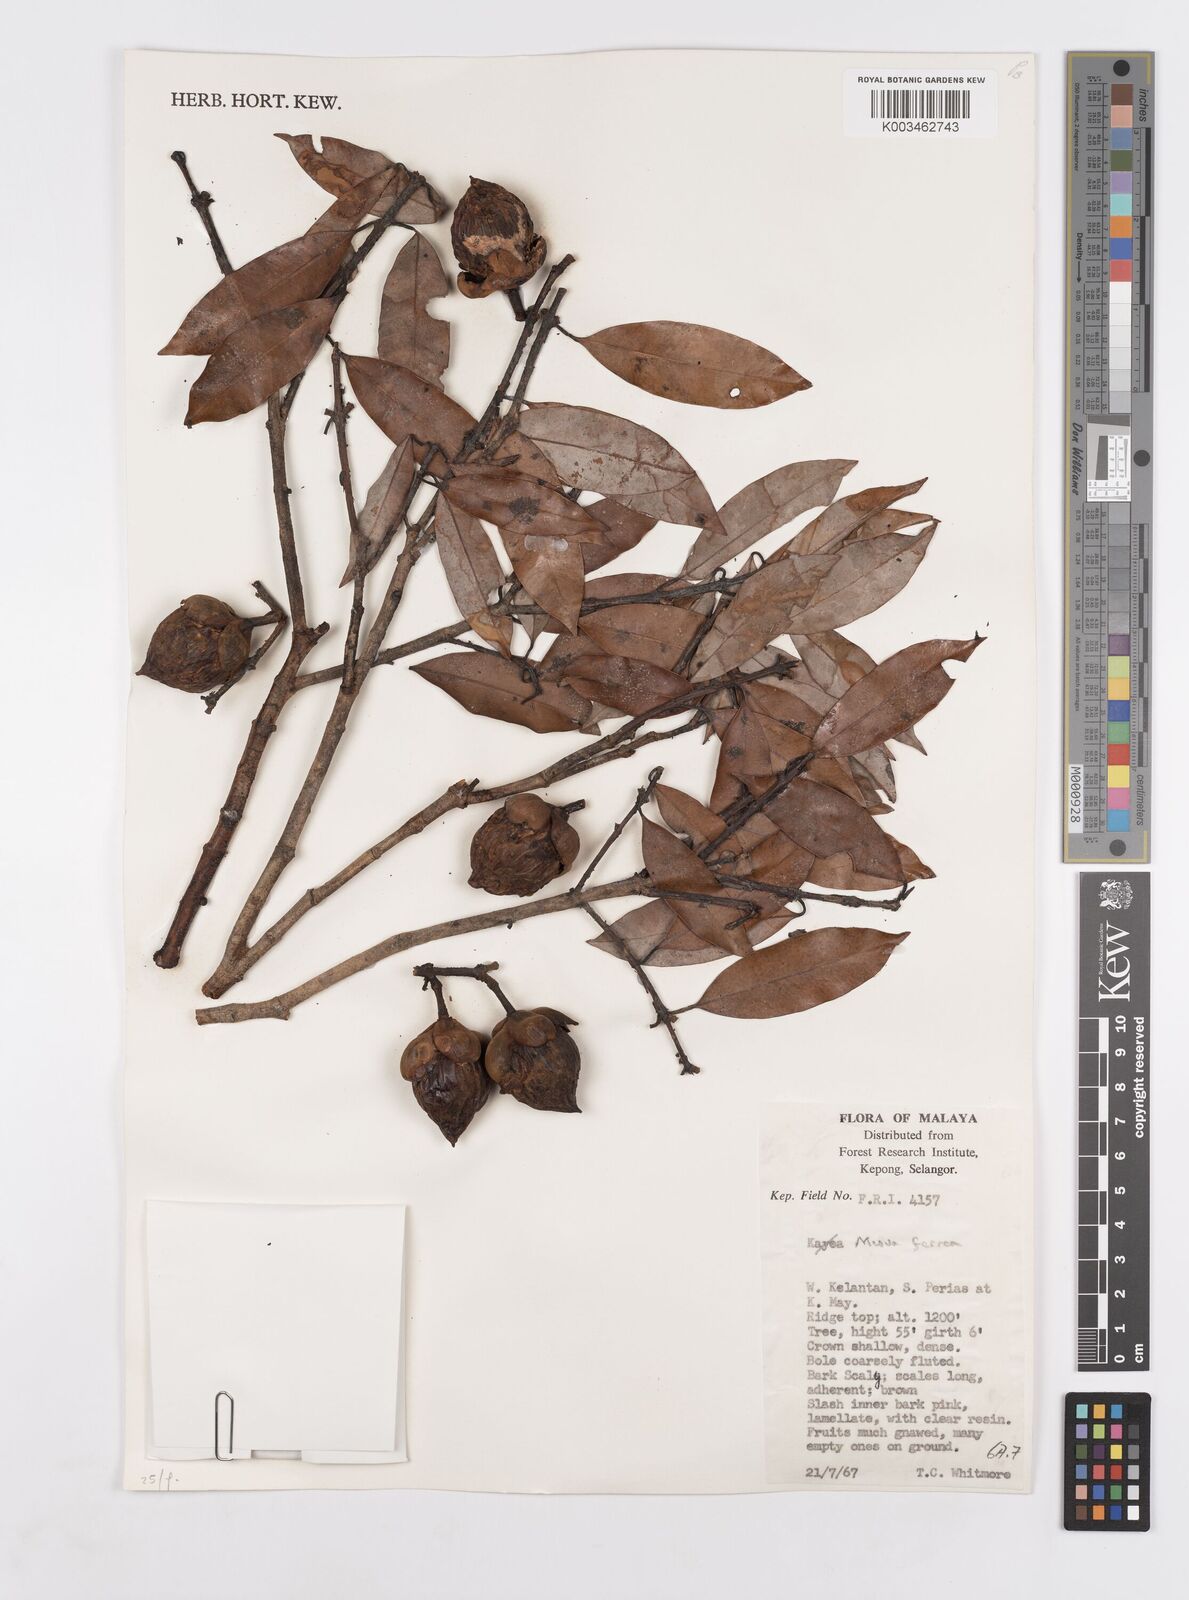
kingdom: Plantae
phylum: Tracheophyta
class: Magnoliopsida
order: Malpighiales
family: Calophyllaceae
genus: Mesua
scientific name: Mesua ferrea
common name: Mesua
